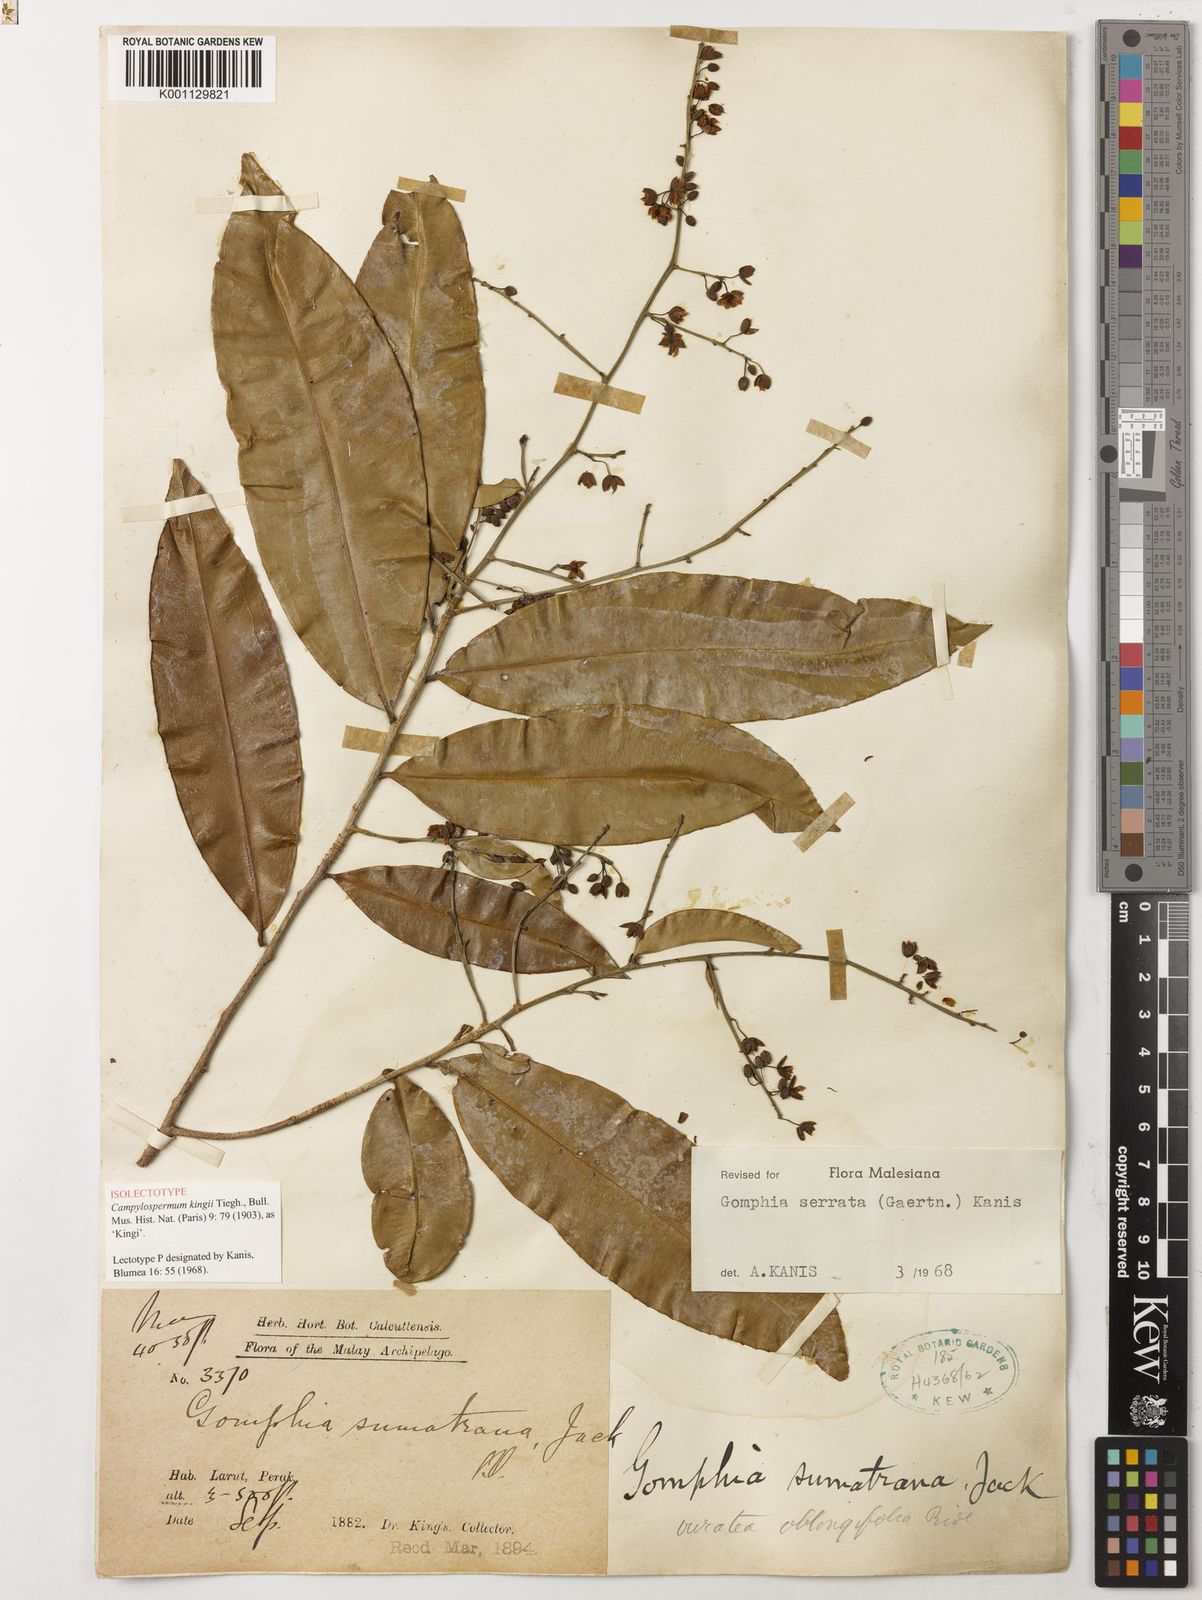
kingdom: Plantae
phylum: Tracheophyta
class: Magnoliopsida
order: Malpighiales
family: Ochnaceae
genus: Gomphia
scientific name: Gomphia serrata
